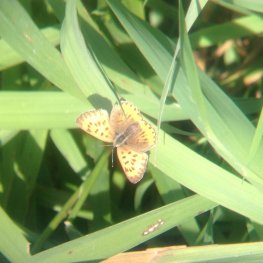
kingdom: Animalia
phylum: Arthropoda
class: Insecta
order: Lepidoptera
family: Sesiidae
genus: Sesia
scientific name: Sesia Lycaena hyllus
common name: Bronze Copper
